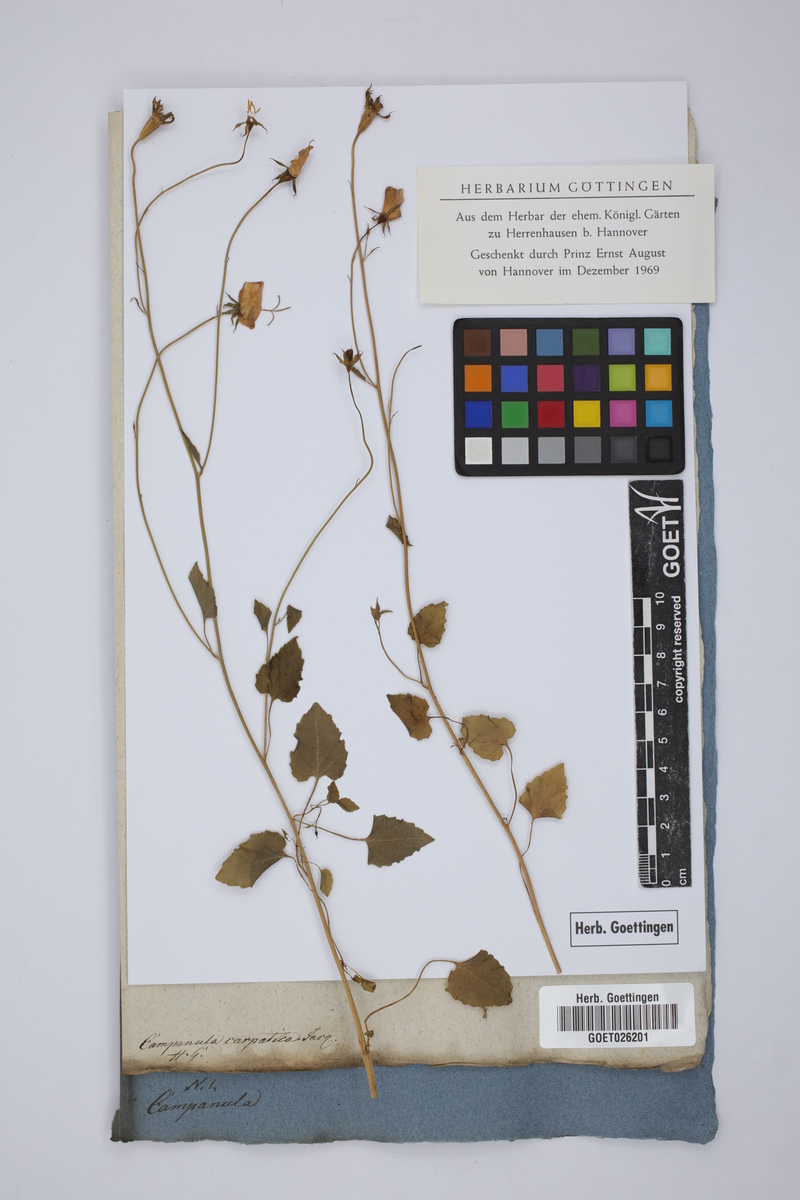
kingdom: Plantae
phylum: Tracheophyta
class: Magnoliopsida
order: Asterales
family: Campanulaceae
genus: Campanula
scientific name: Campanula carpatica
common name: Tussock bellflower
